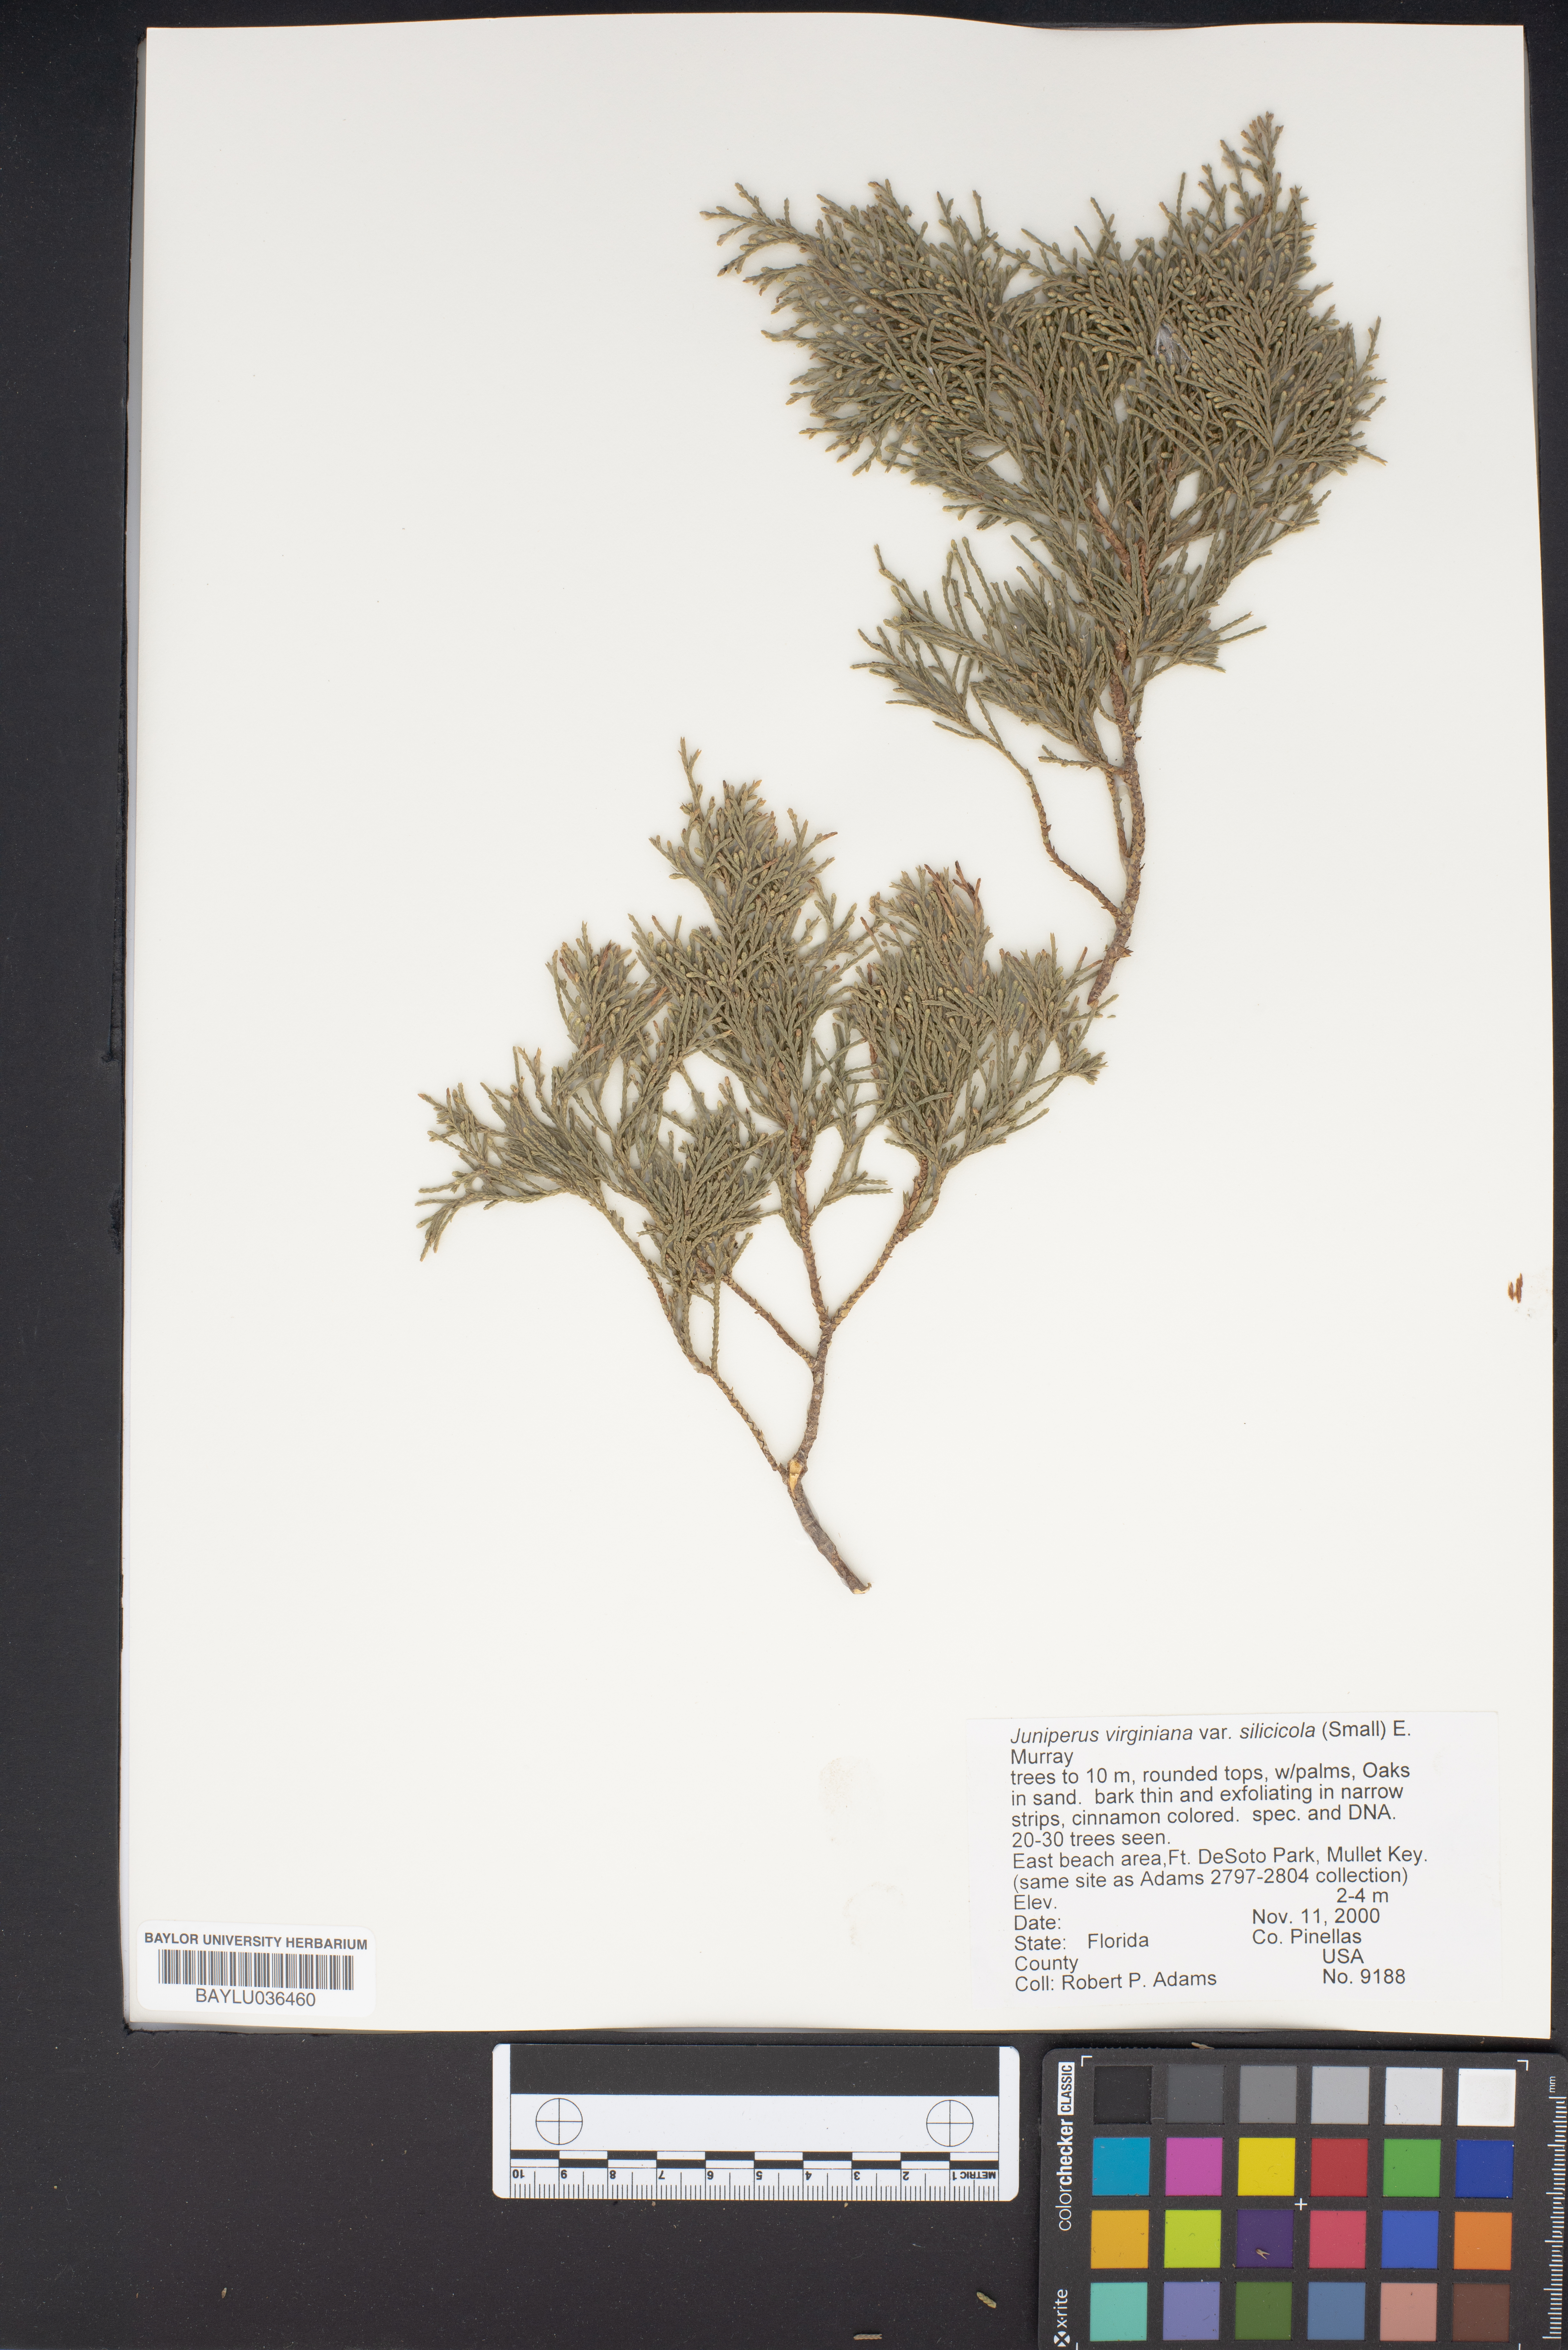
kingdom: Plantae
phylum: Tracheophyta
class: Pinopsida
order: Pinales
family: Cupressaceae
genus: Juniperus
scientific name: Juniperus virginiana
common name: Red juniper
